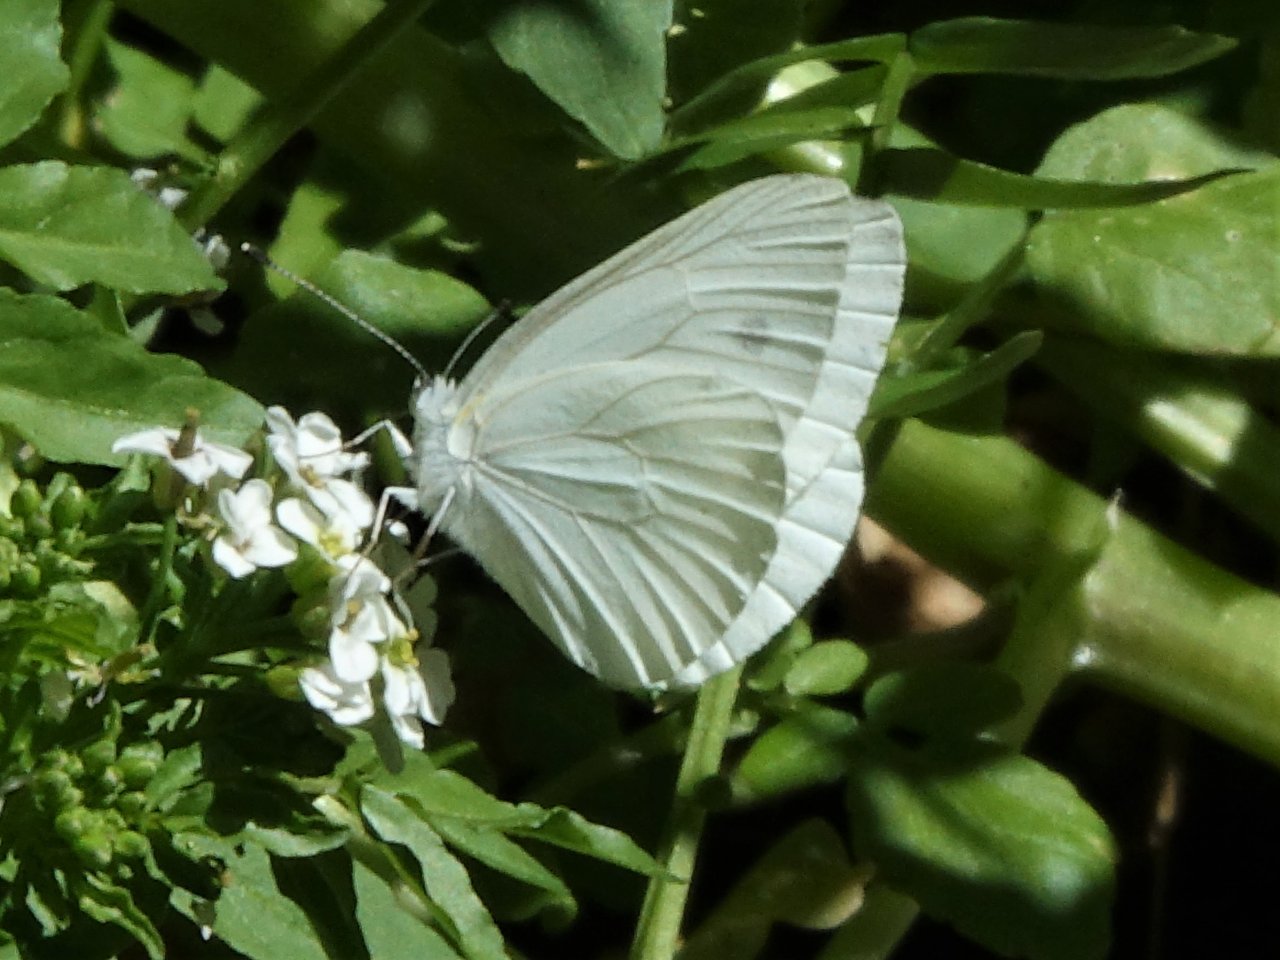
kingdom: Animalia
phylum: Arthropoda
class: Insecta
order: Lepidoptera
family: Pieridae
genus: Pieris
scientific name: Pieris marginalis
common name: Margined White
